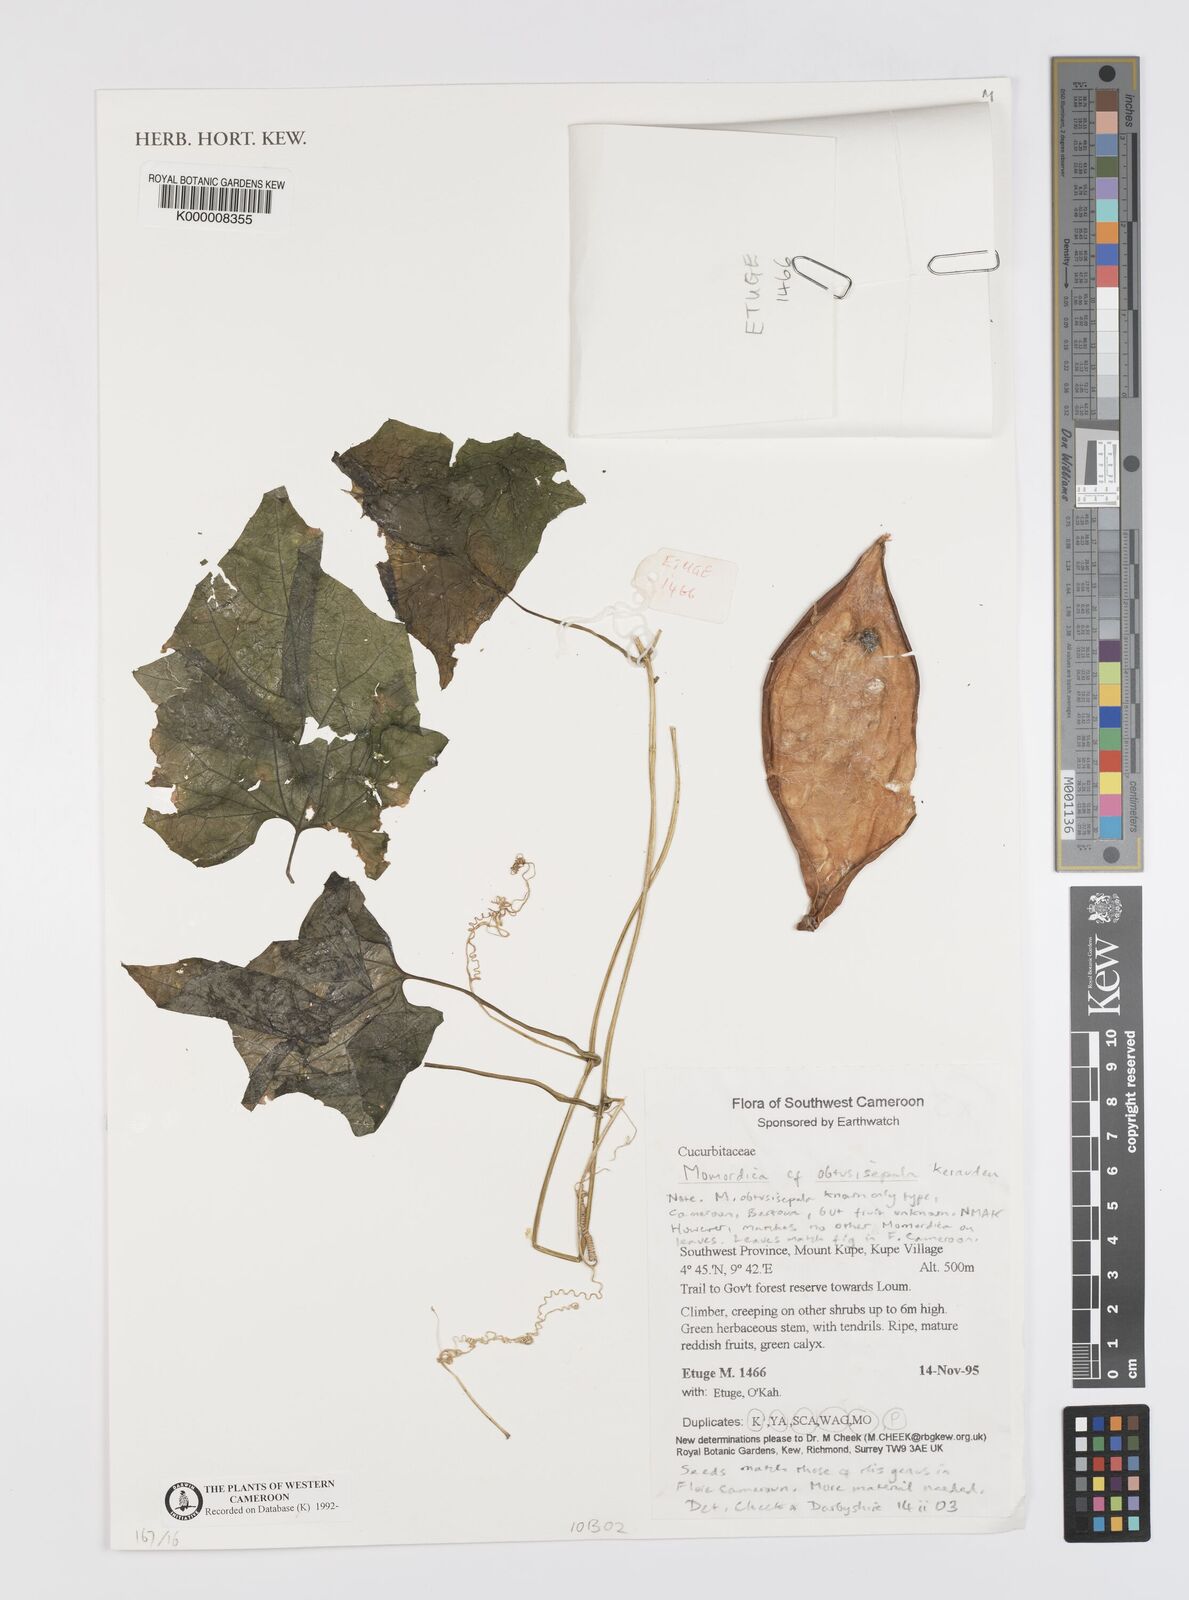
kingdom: Plantae
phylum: Tracheophyta
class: Magnoliopsida
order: Cucurbitales
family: Cucurbitaceae
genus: Momordica
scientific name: Momordica obtusisepala
